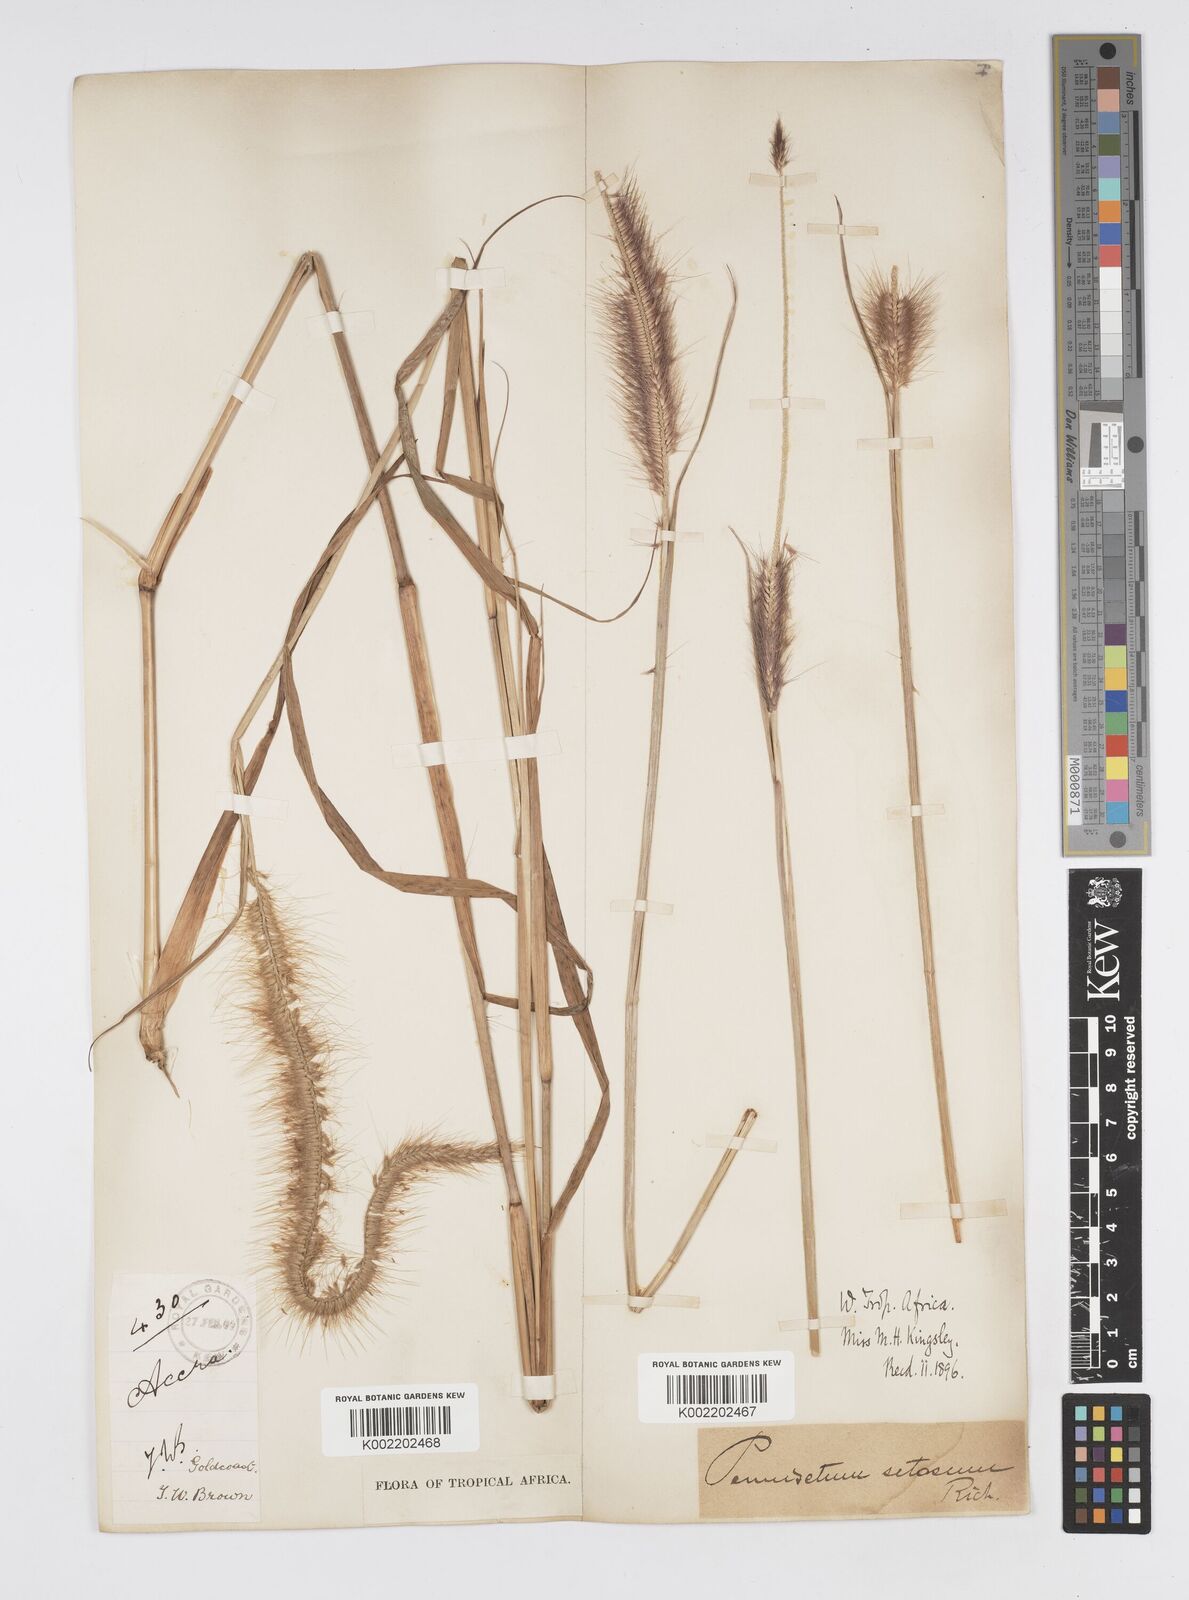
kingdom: Plantae
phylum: Tracheophyta
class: Liliopsida
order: Poales
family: Poaceae
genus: Setaria
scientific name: Setaria parviflora
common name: Knotroot bristle-grass
